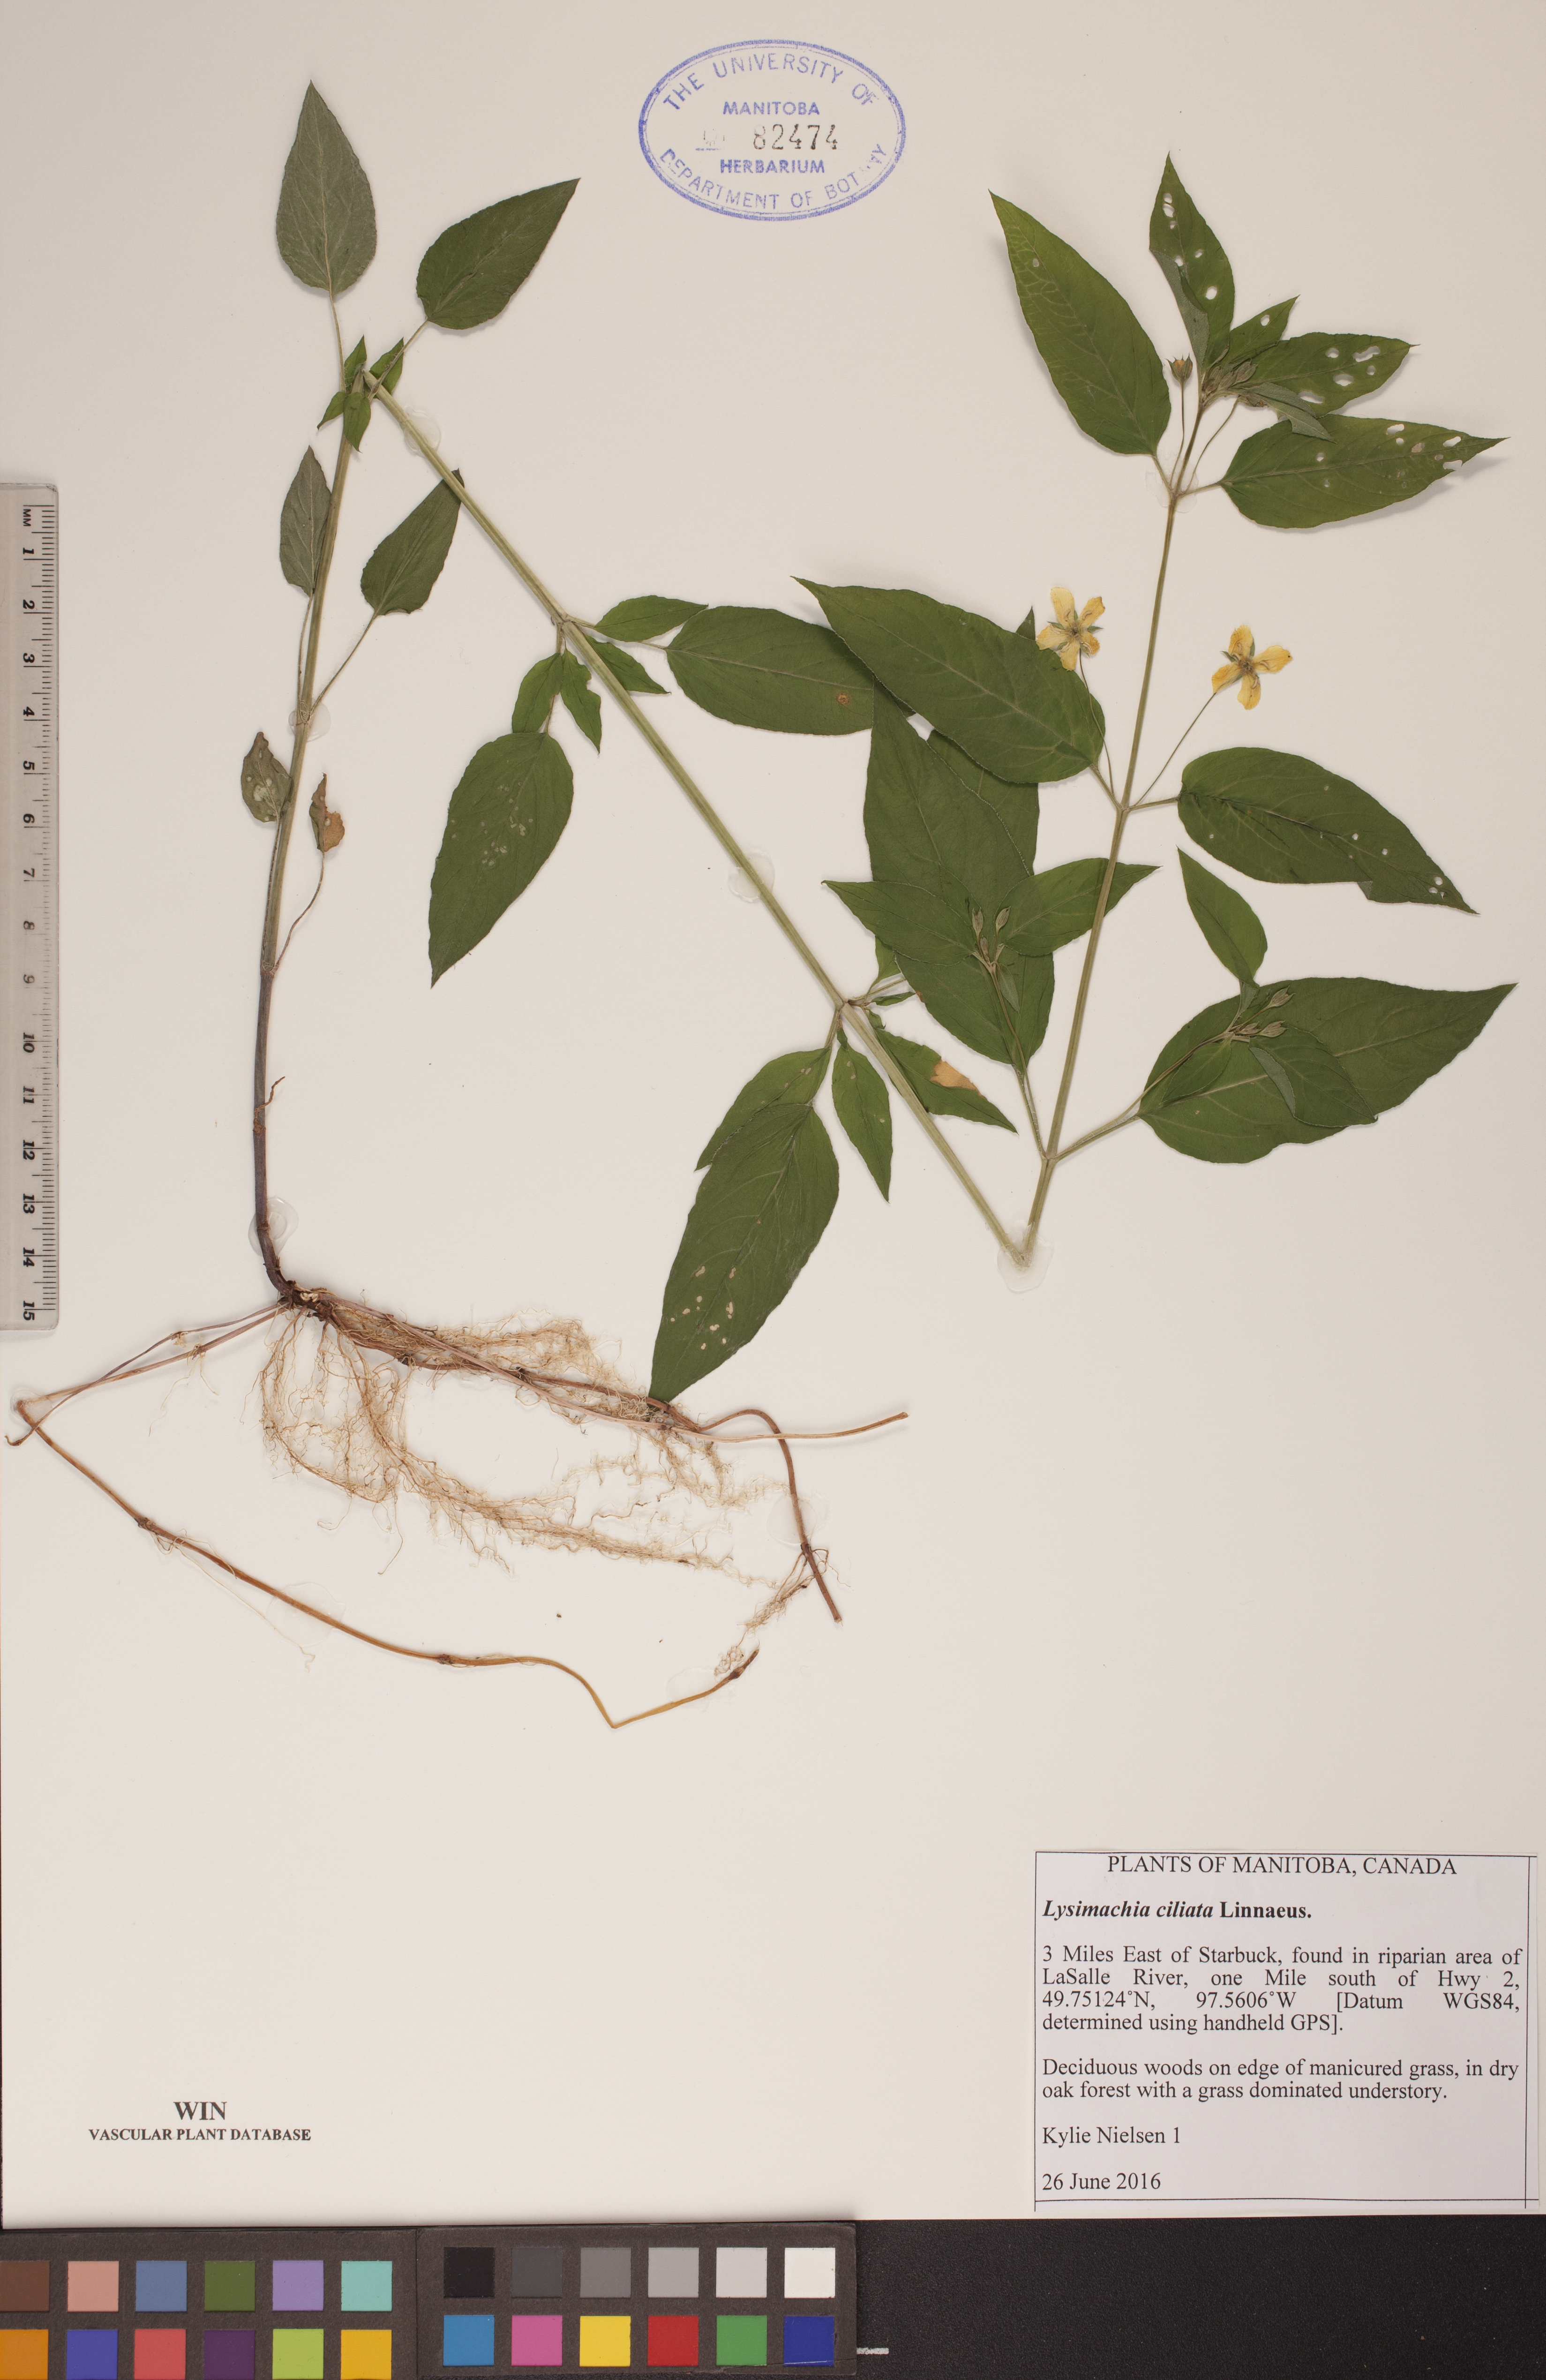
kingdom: Plantae
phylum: Tracheophyta
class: Magnoliopsida
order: Ericales
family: Primulaceae
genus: Lysimachia
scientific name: Lysimachia ciliata
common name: Fringed loosestrife
